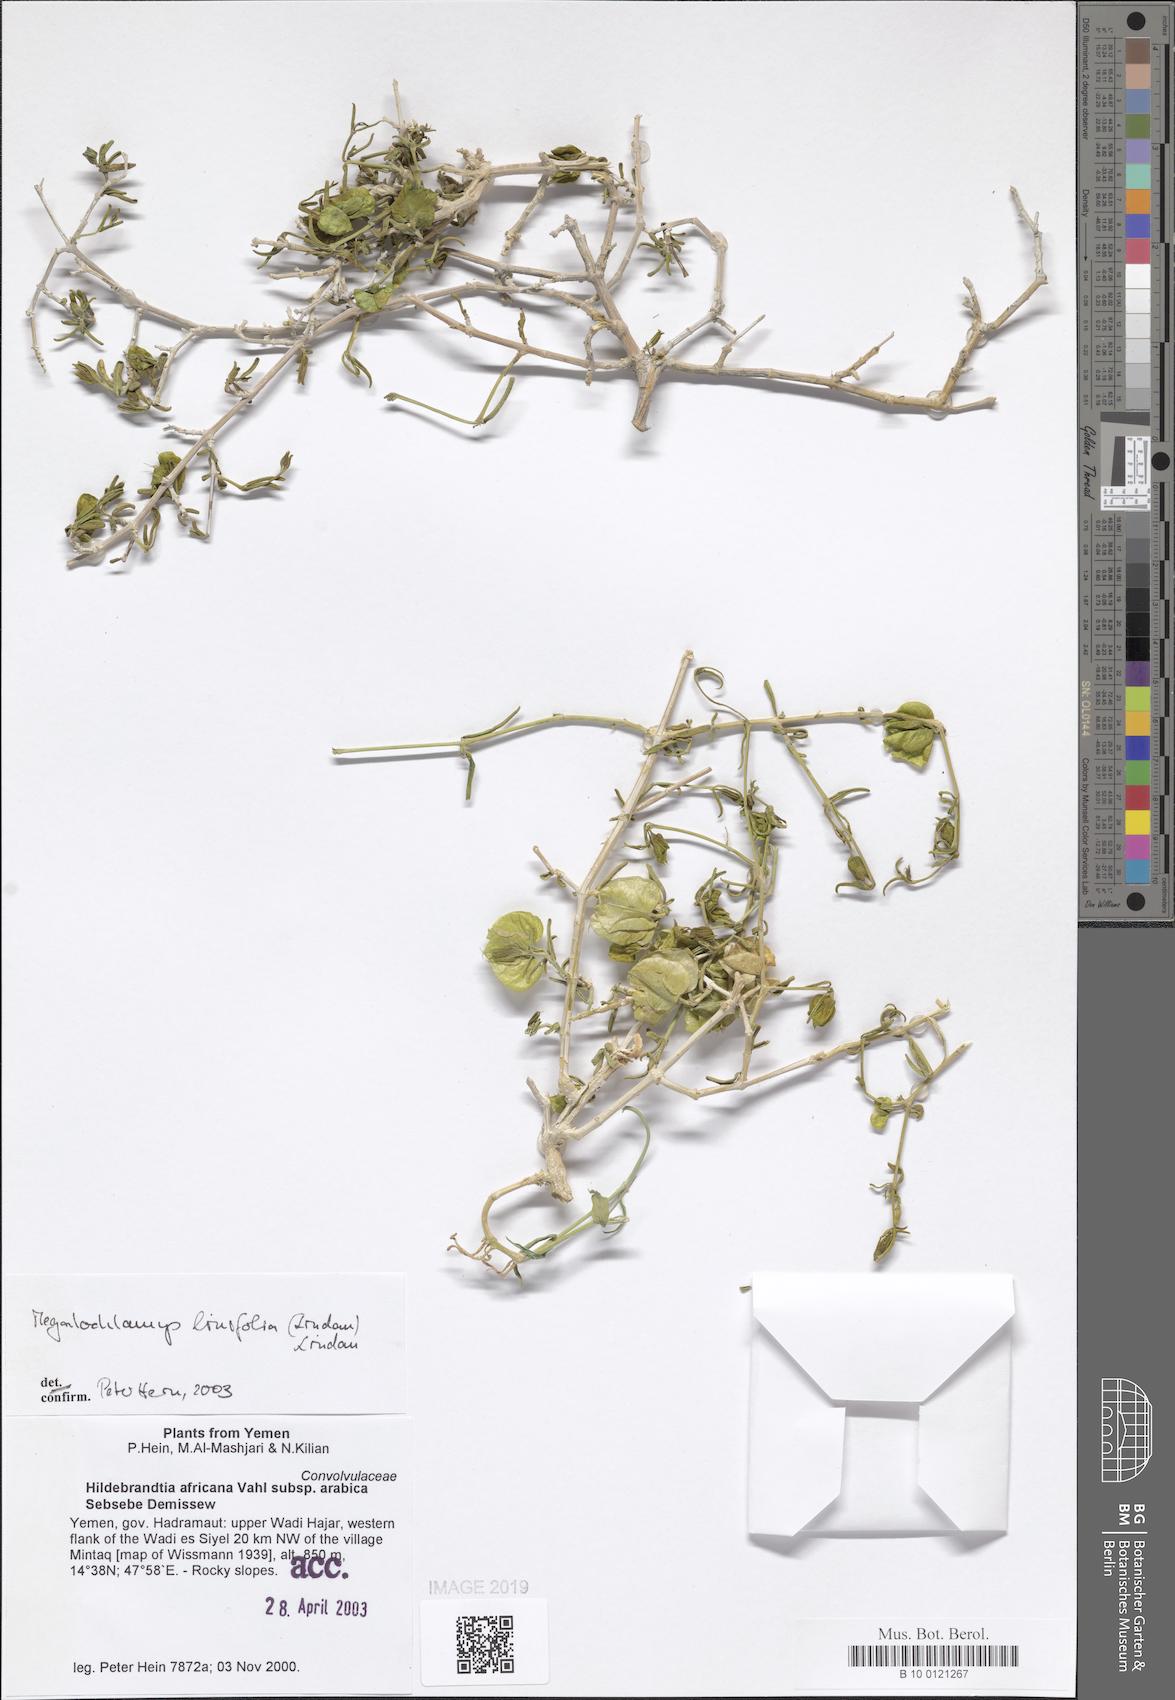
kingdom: Plantae
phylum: Tracheophyta
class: Magnoliopsida
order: Lamiales
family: Acanthaceae
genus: Megalochlamys
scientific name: Megalochlamys linifolia
